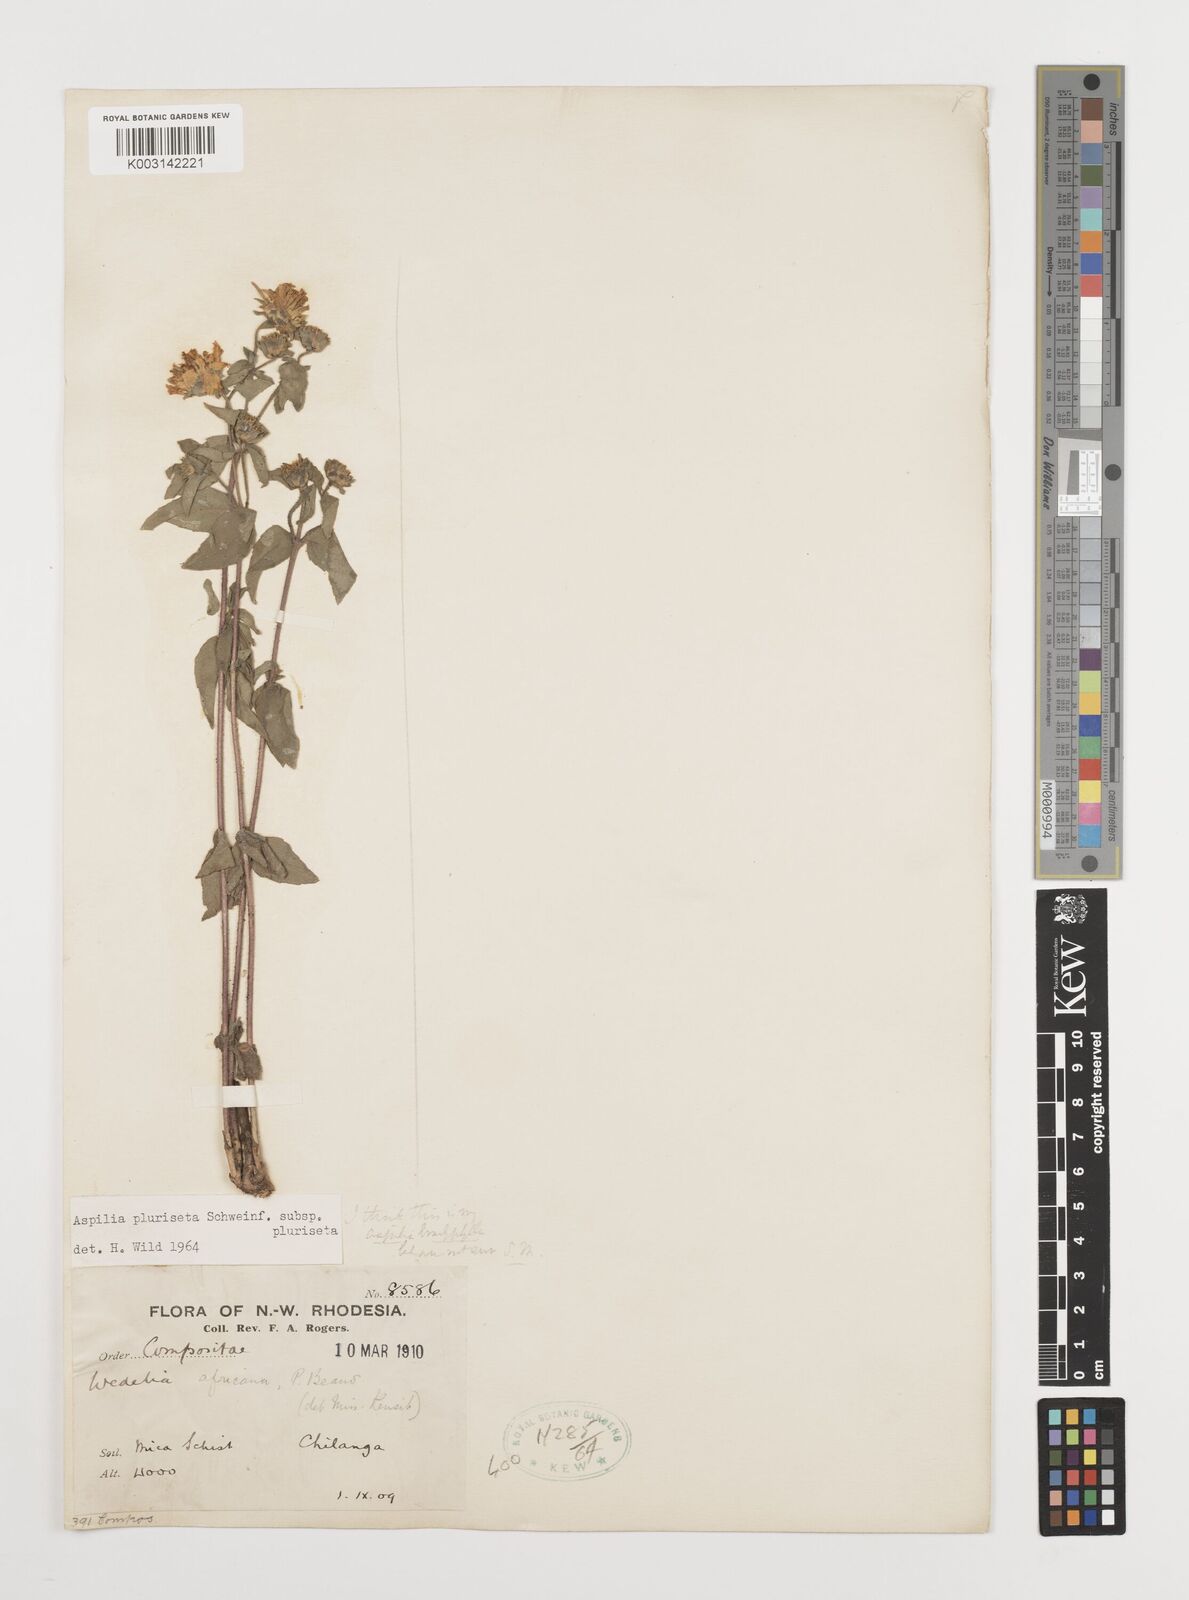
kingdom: Plantae
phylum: Tracheophyta
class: Magnoliopsida
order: Asterales
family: Asteraceae
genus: Aspilia
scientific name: Aspilia pluriseta
